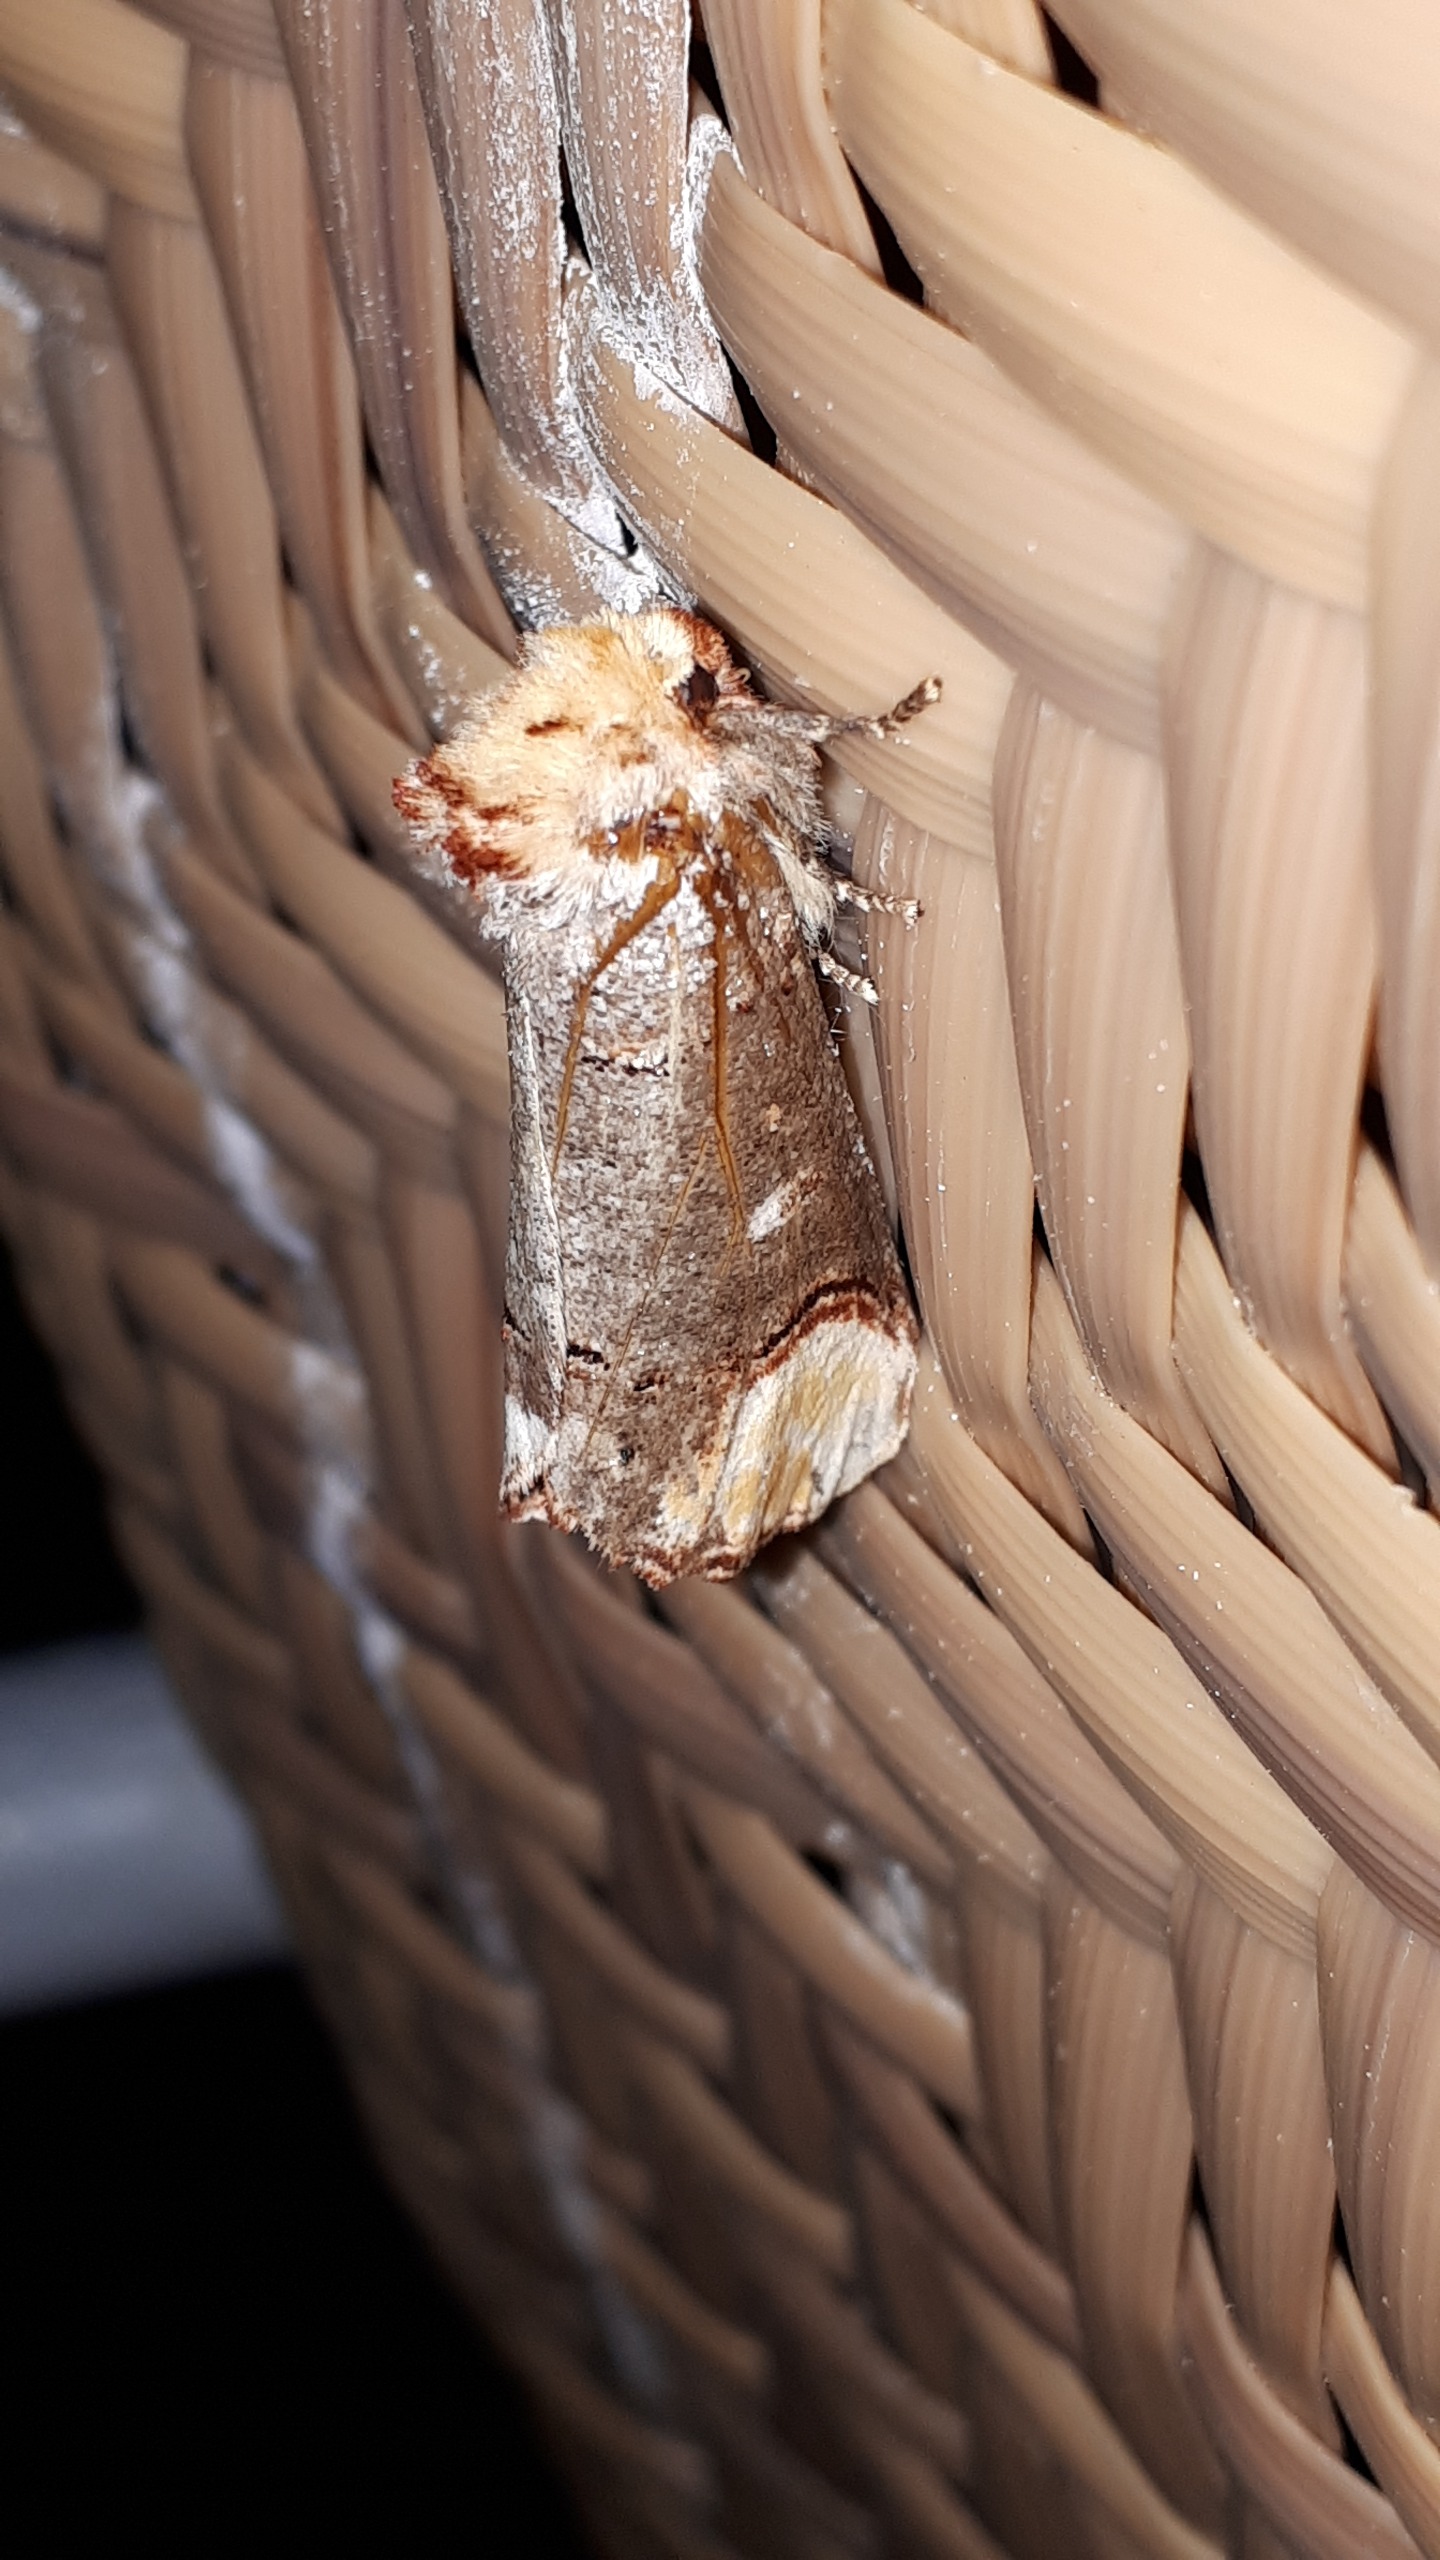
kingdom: Animalia
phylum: Arthropoda
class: Insecta
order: Lepidoptera
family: Notodontidae
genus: Phalera
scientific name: Phalera bucephala
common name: Måneplet
